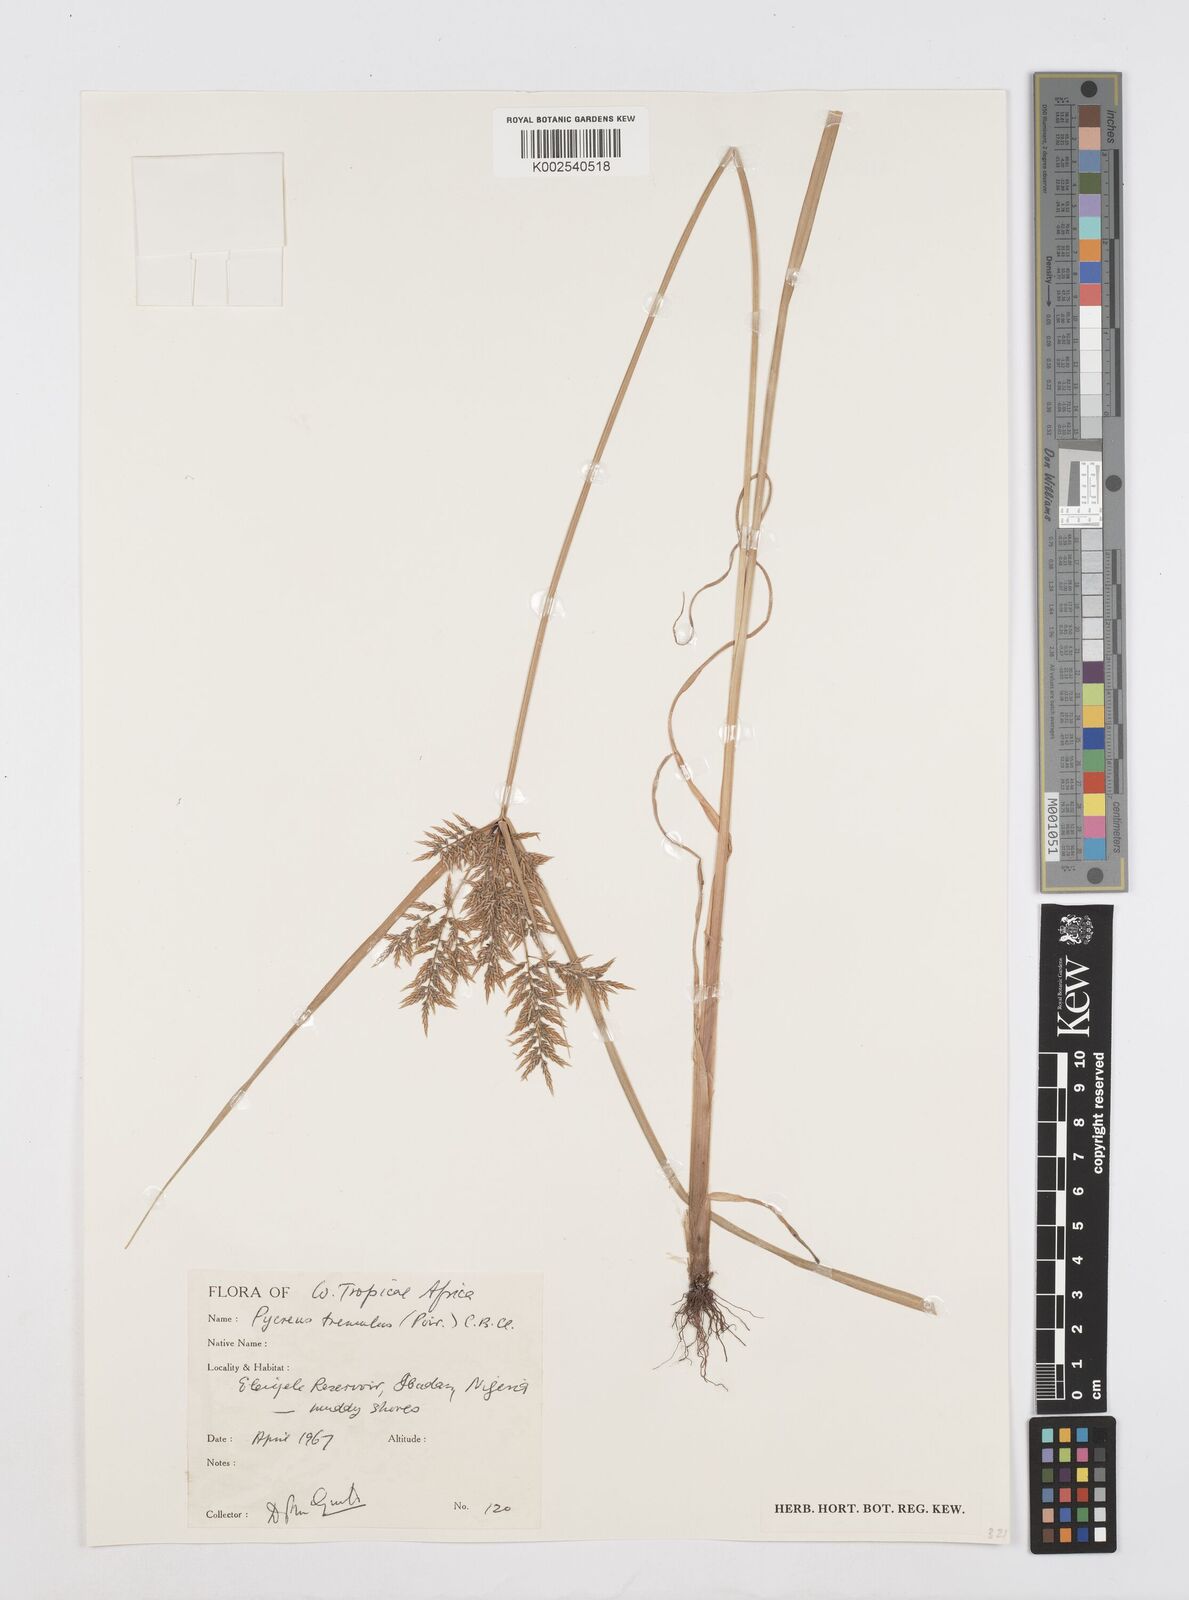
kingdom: Plantae
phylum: Tracheophyta
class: Liliopsida
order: Poales
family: Cyperaceae
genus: Cyperus
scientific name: Cyperus macrostachyos
